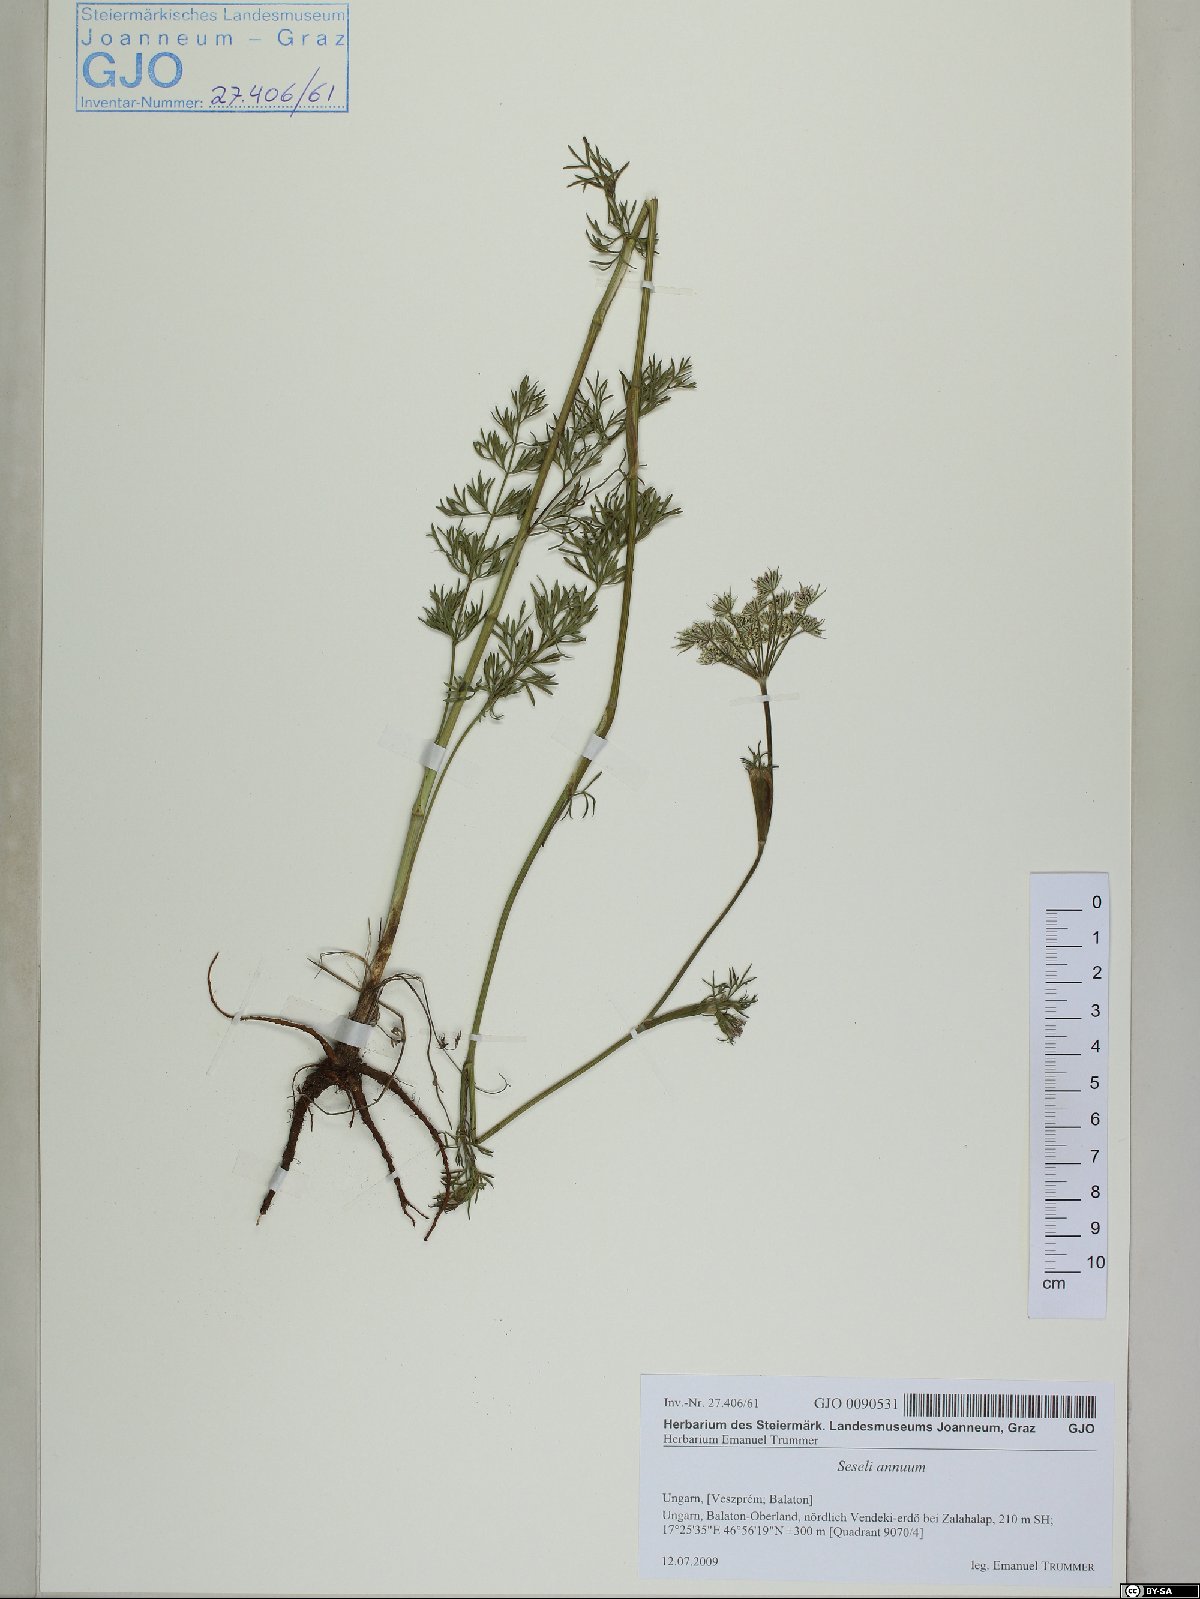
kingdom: Plantae
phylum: Tracheophyta
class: Magnoliopsida
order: Apiales
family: Apiaceae
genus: Seseli
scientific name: Seseli annuum
